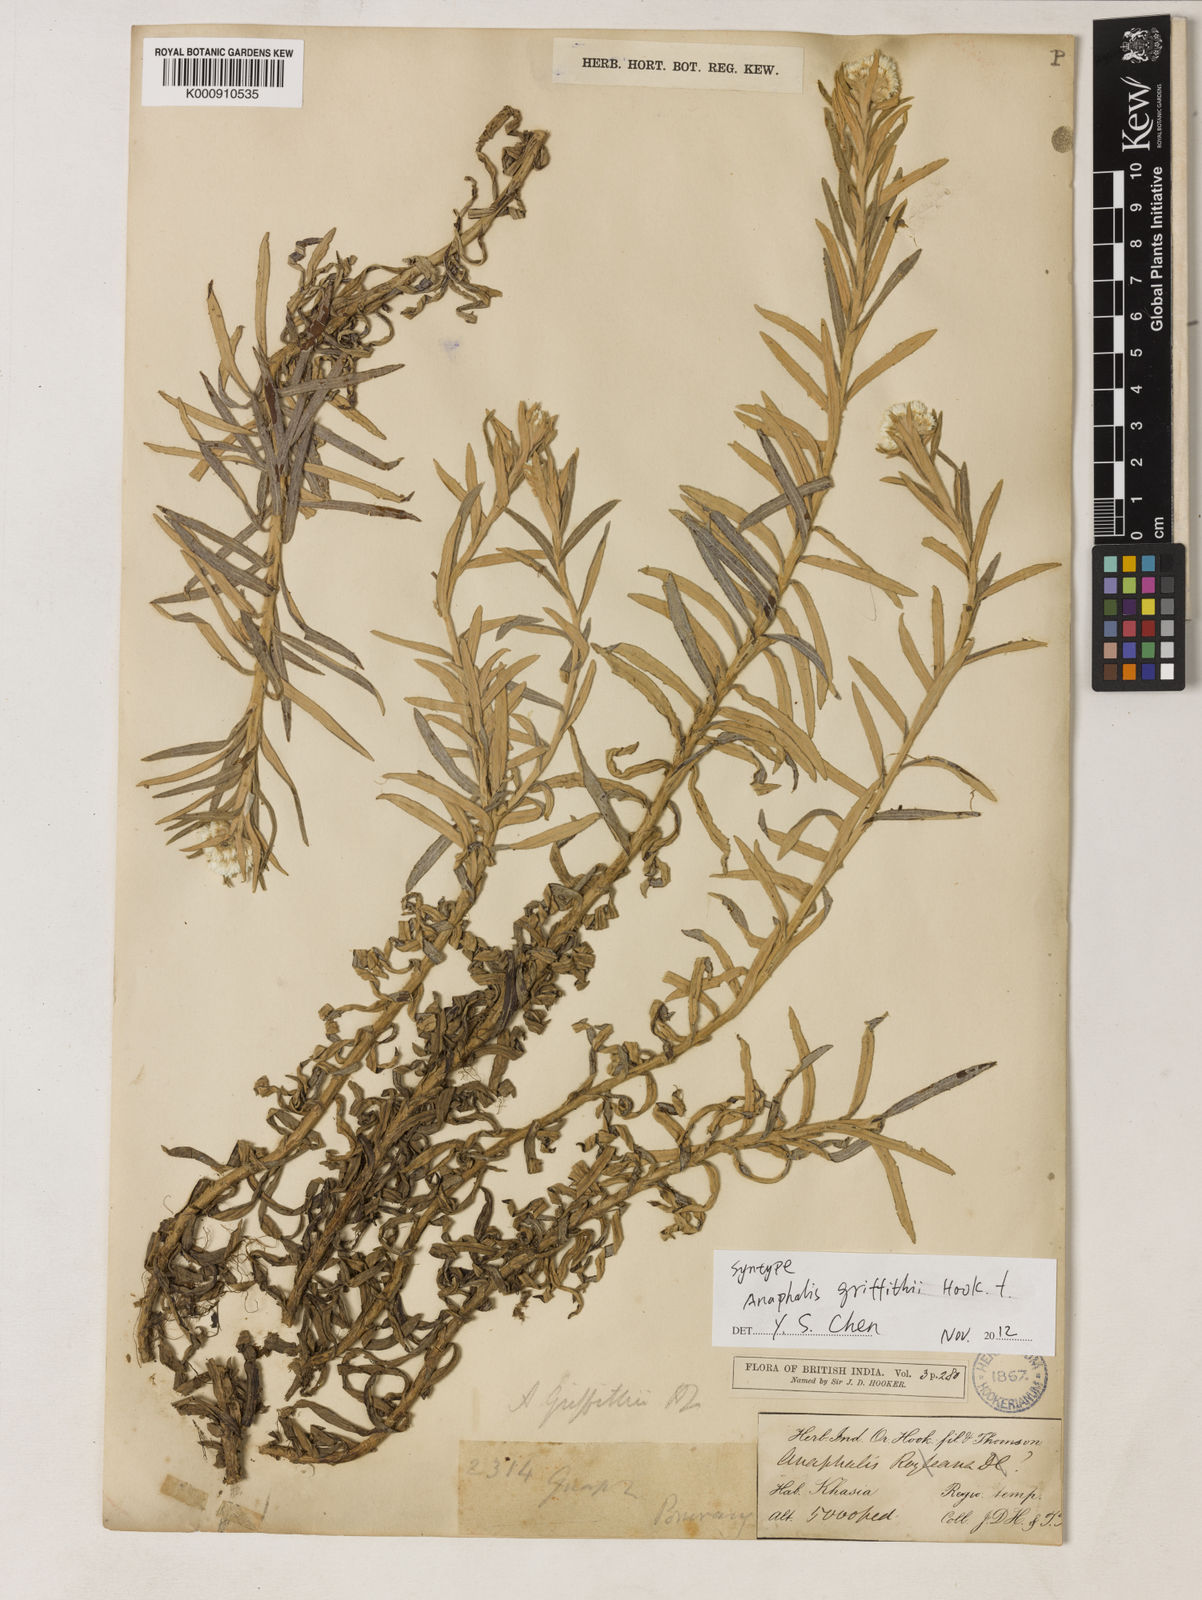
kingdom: Plantae
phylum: Tracheophyta
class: Magnoliopsida
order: Asterales
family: Asteraceae
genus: Anaphalis
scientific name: Anaphalis griffithii
